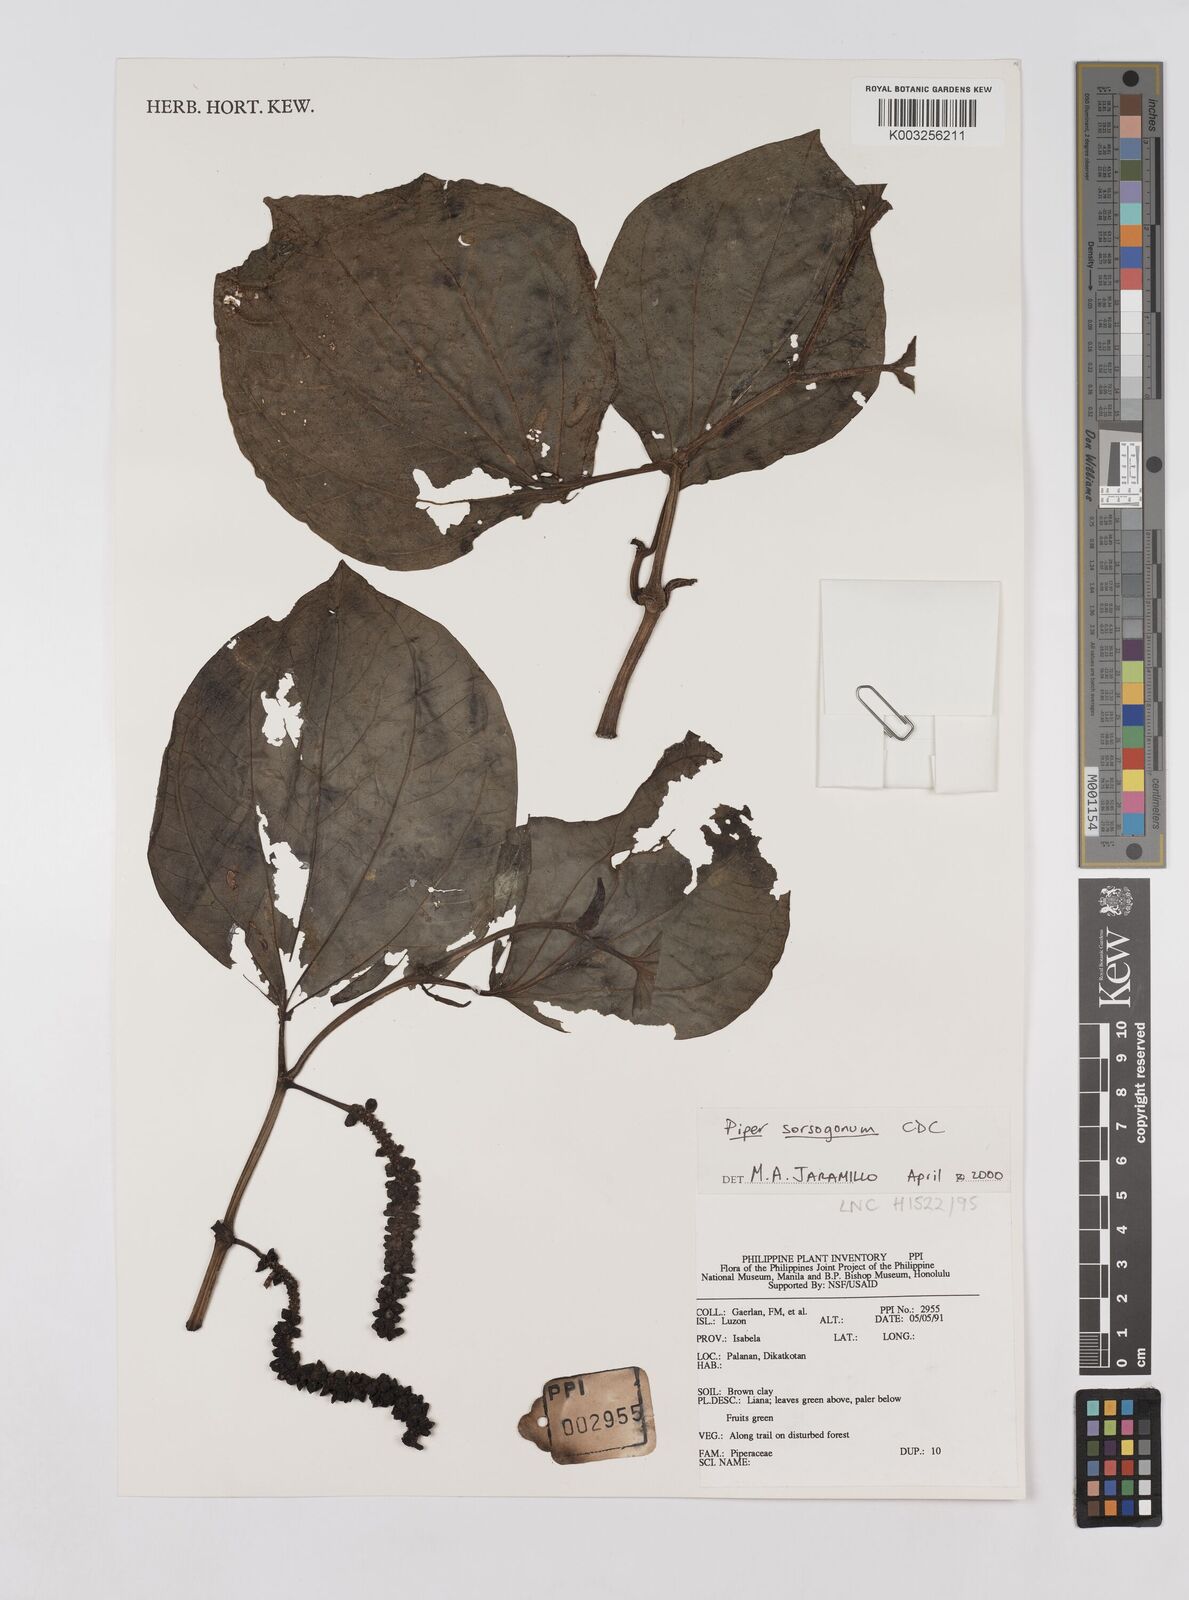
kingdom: Plantae
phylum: Tracheophyta
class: Magnoliopsida
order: Piperales
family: Piperaceae
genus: Piper
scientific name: Piper sorsogonum
